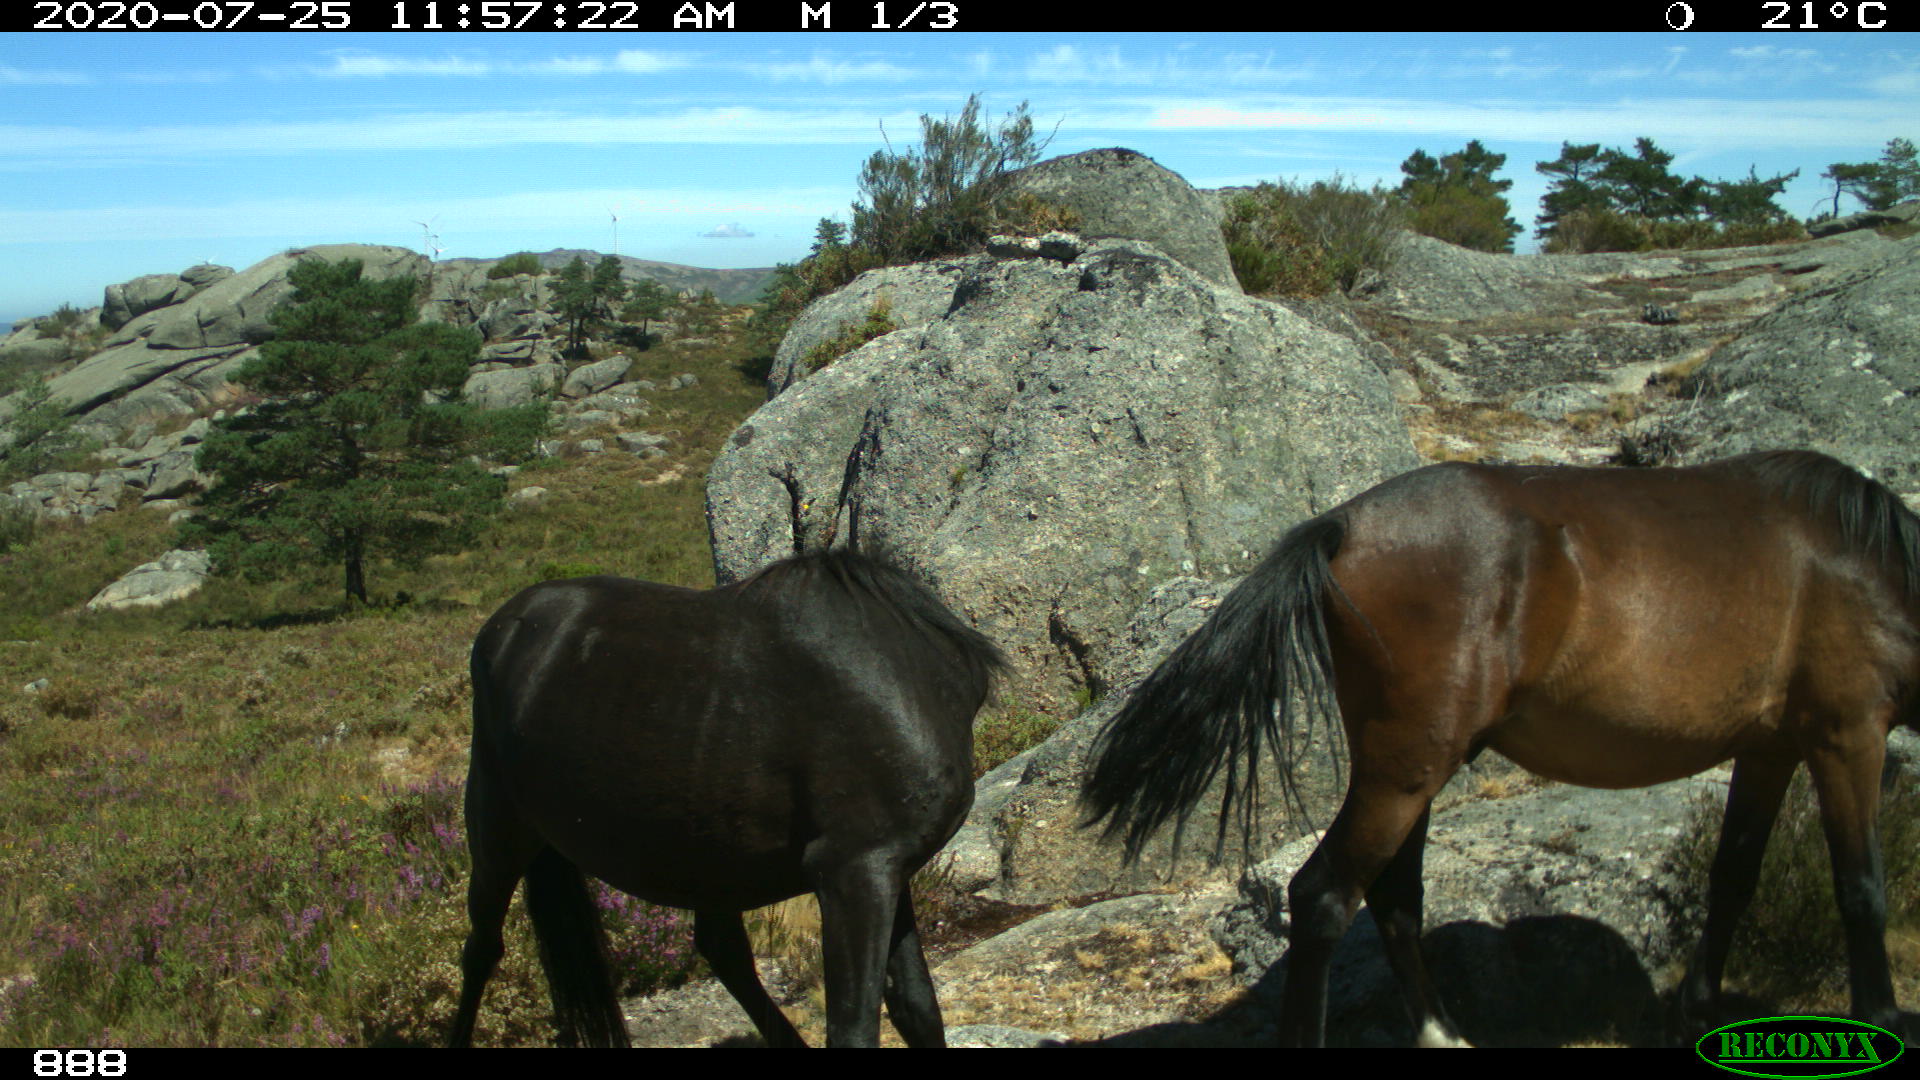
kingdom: Animalia
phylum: Chordata
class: Mammalia
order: Perissodactyla
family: Equidae
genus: Equus
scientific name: Equus caballus
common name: Horse
